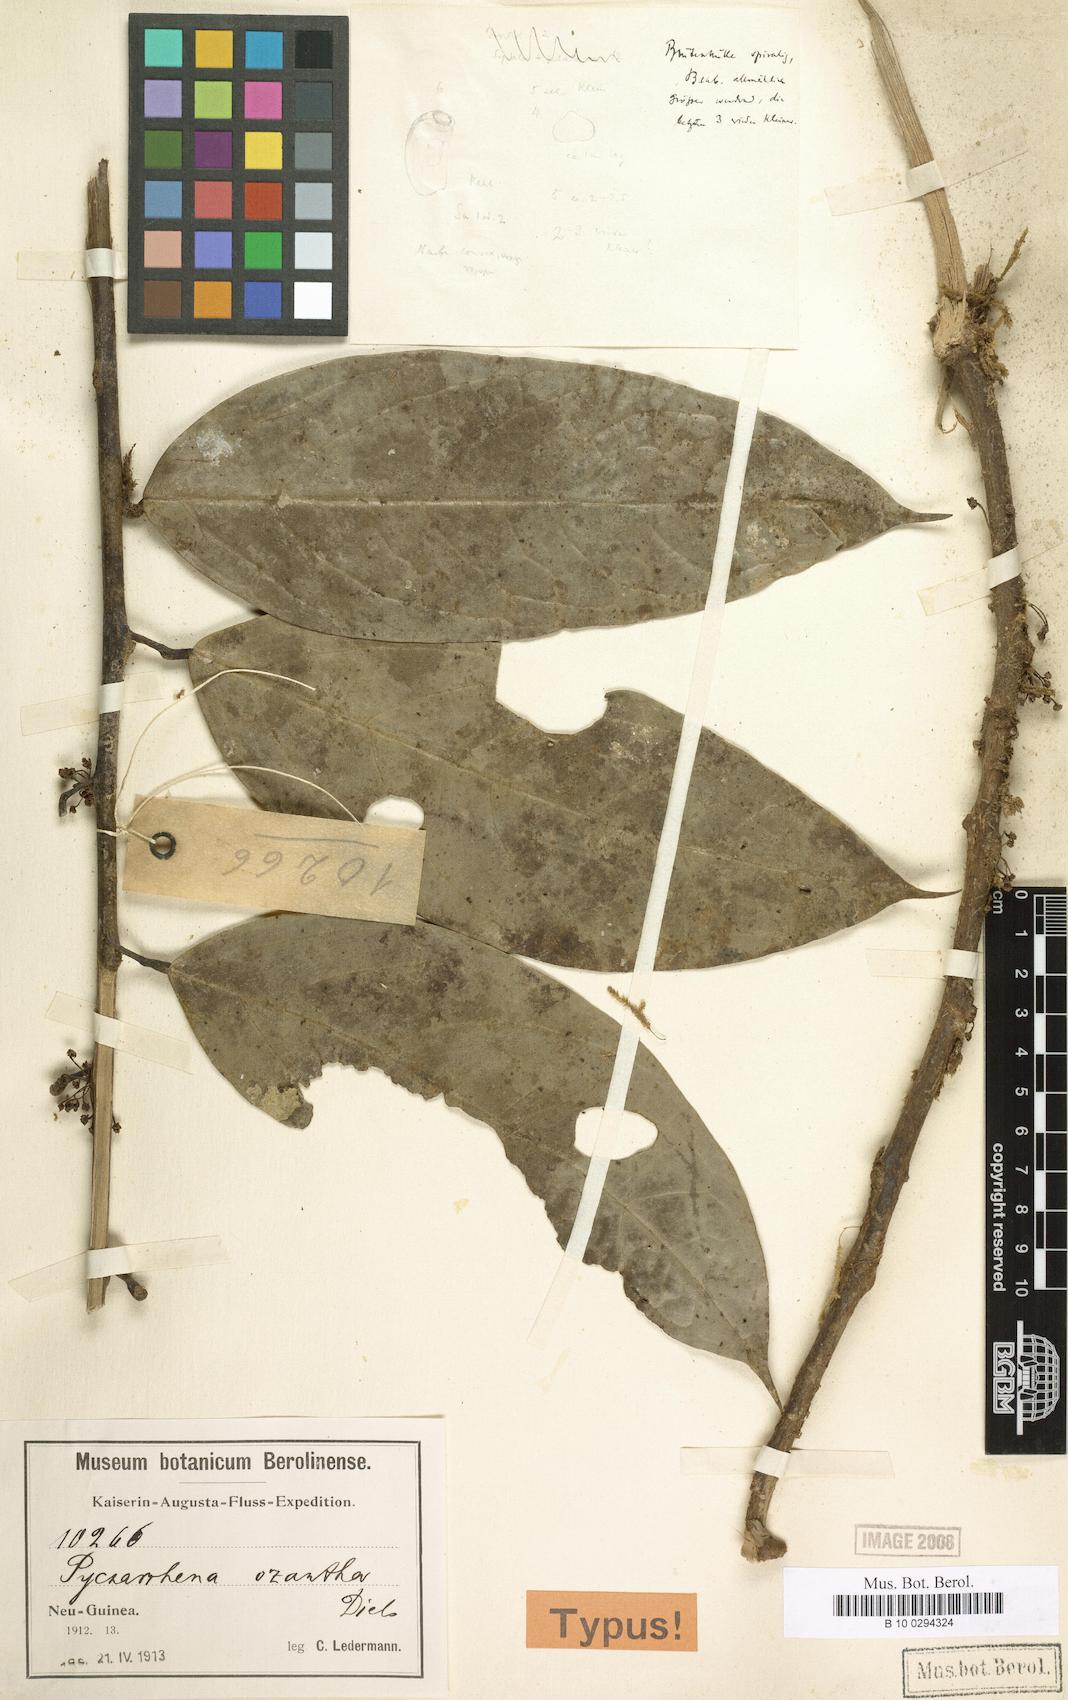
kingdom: Plantae
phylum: Tracheophyta
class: Magnoliopsida
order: Ranunculales
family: Menispermaceae
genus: Pycnarrhena
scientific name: Pycnarrhena ozantha
